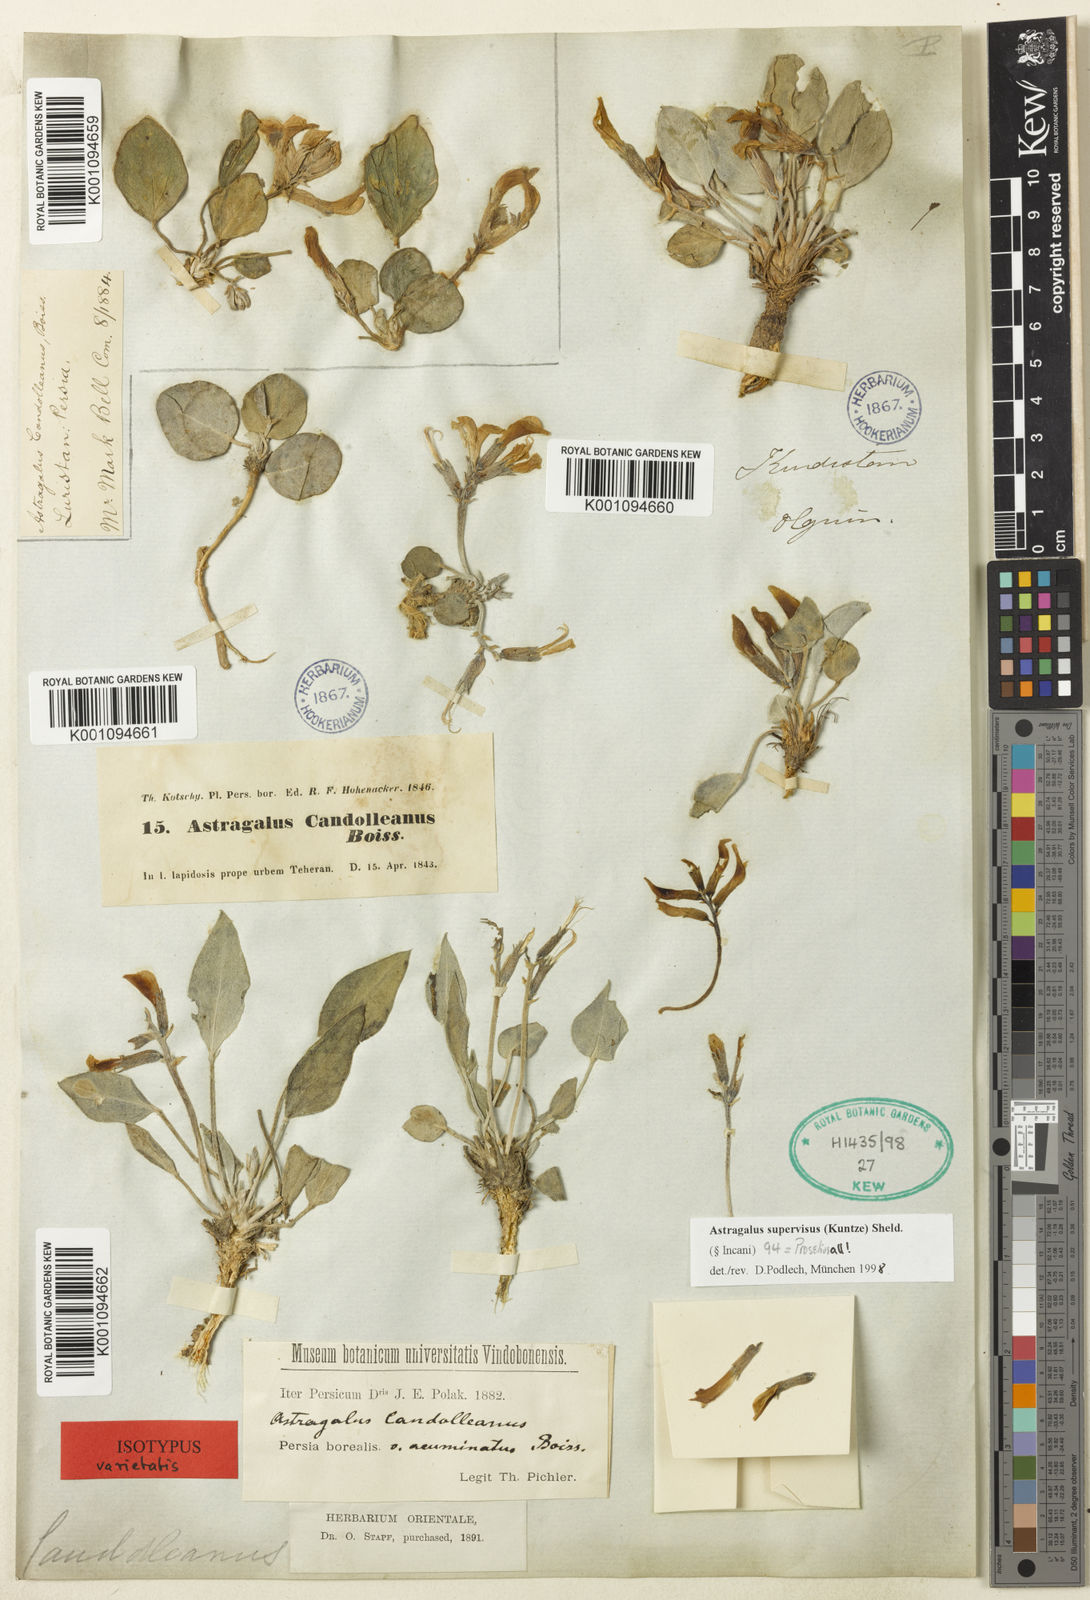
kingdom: Plantae
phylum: Tracheophyta
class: Magnoliopsida
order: Fabales
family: Fabaceae
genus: Astragalus
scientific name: Astragalus
